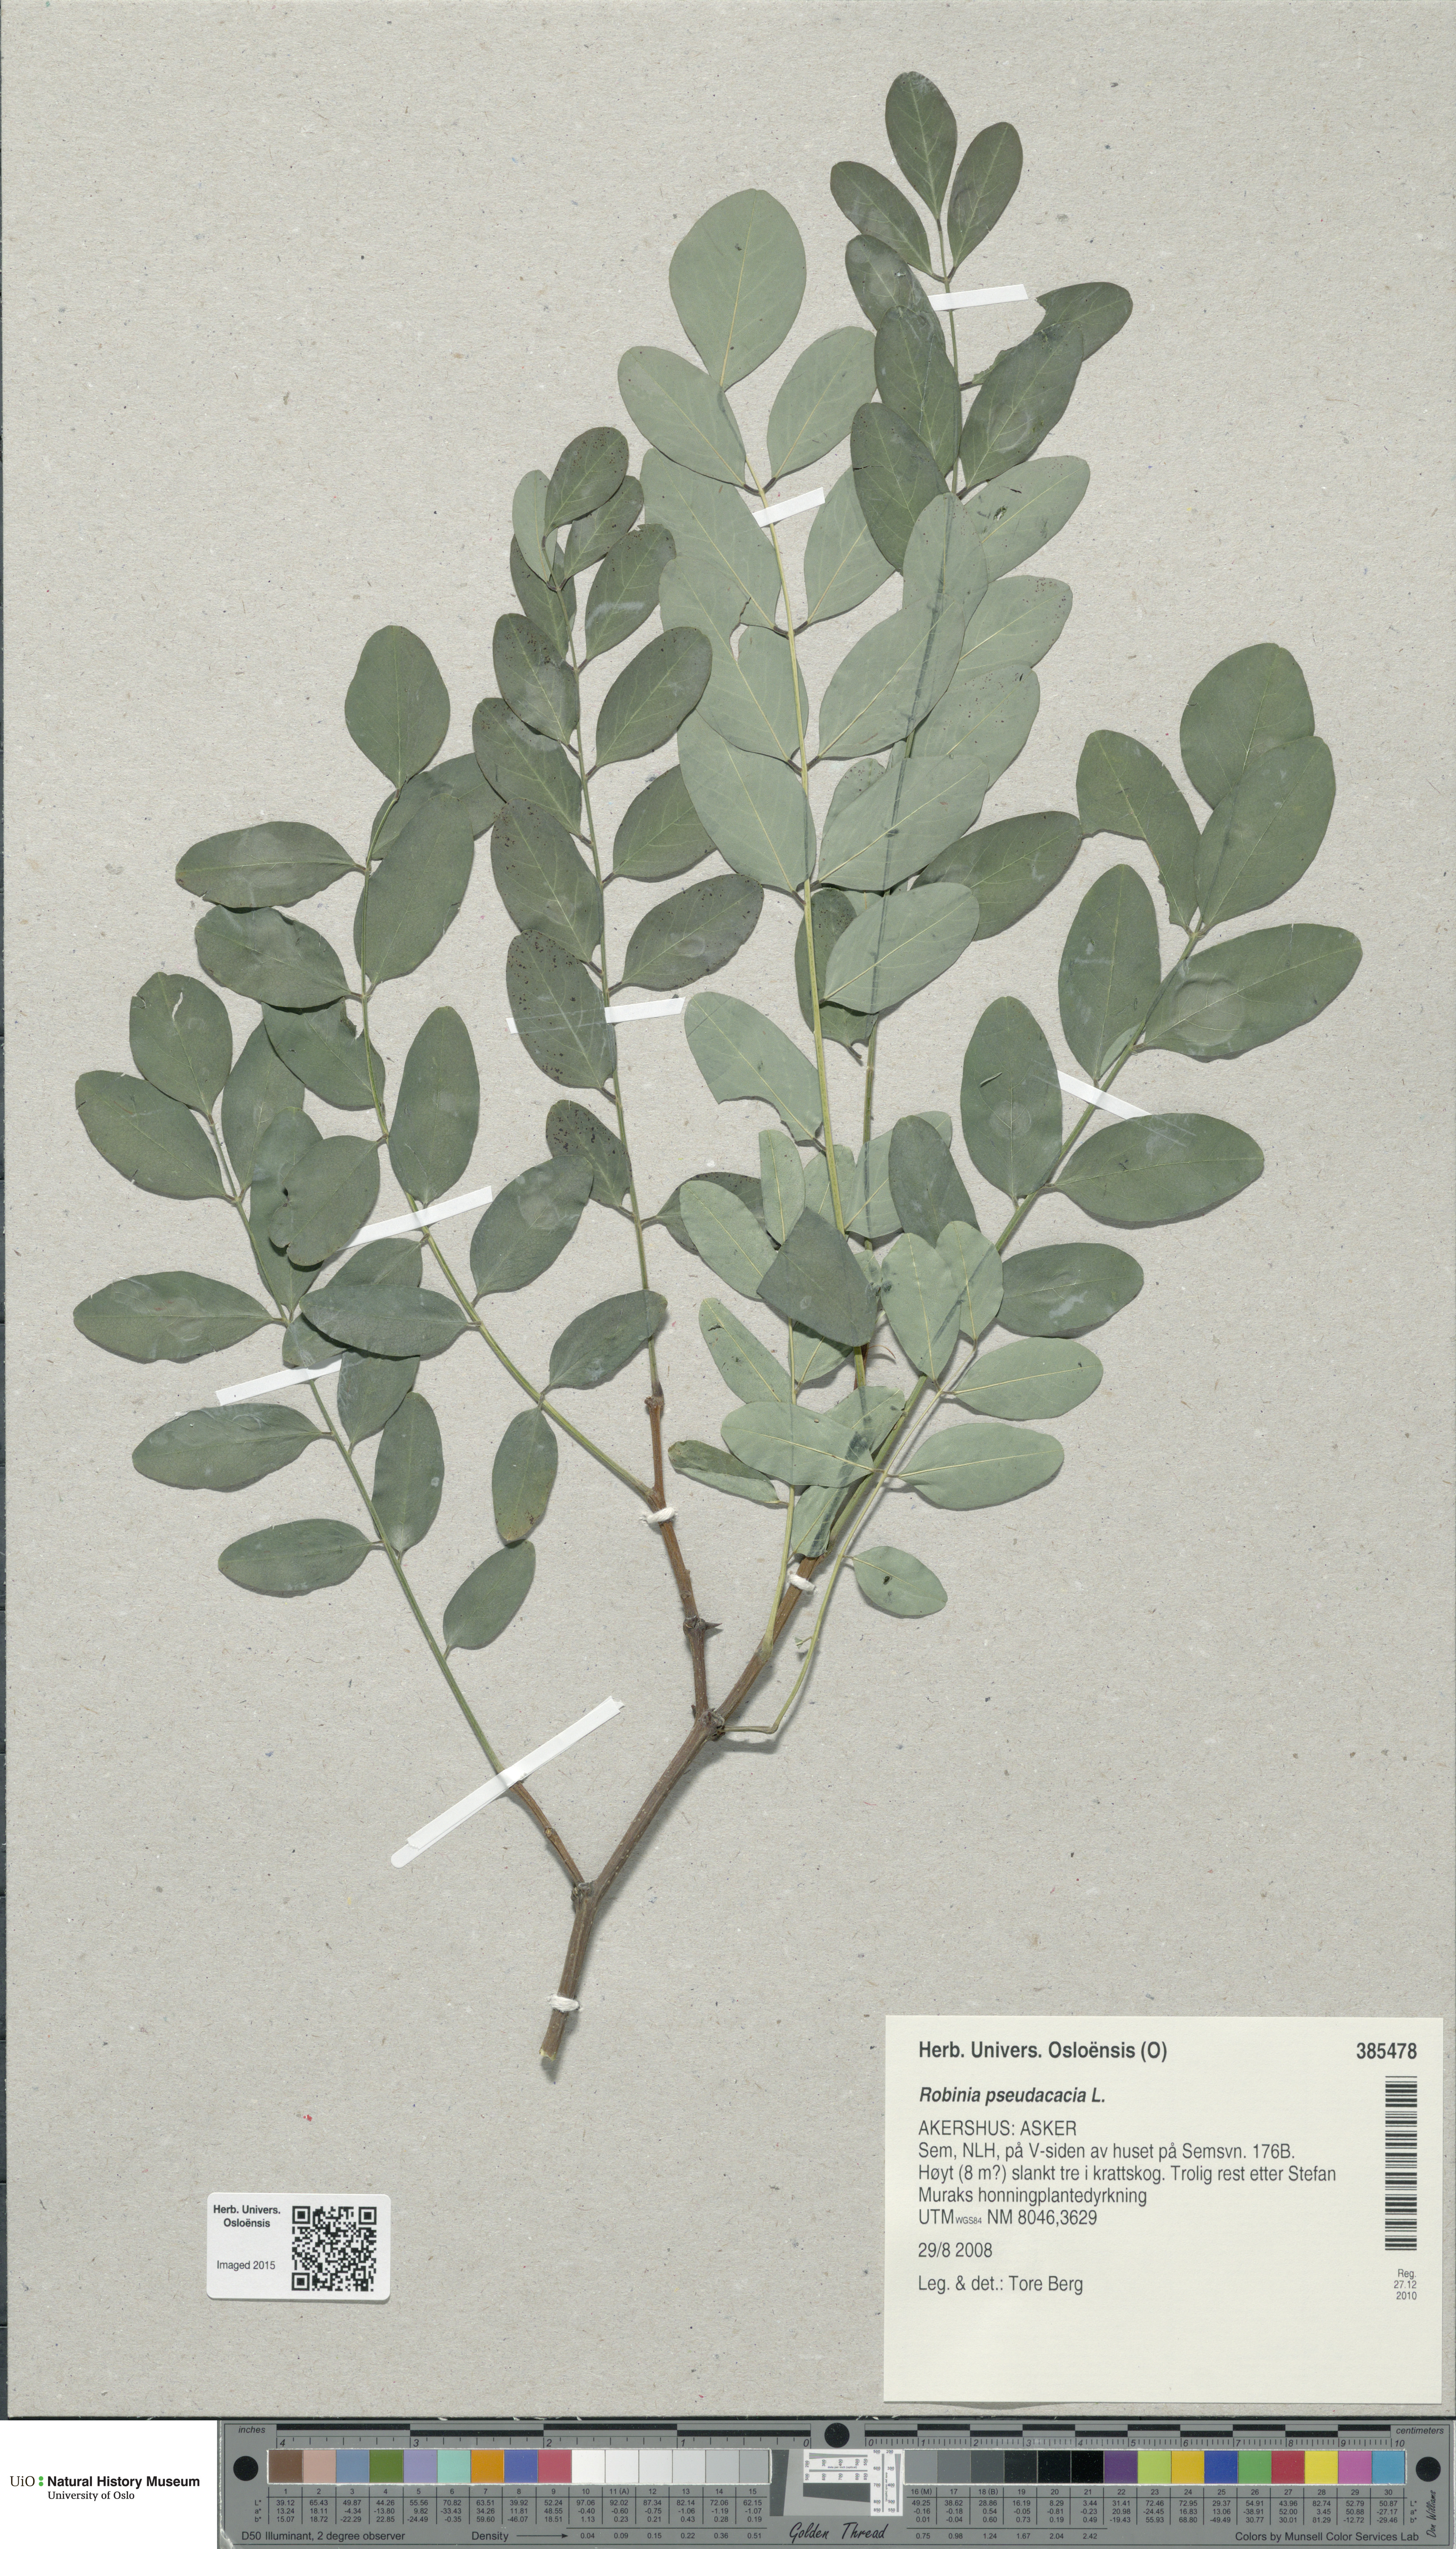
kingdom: Plantae
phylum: Tracheophyta
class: Magnoliopsida
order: Fabales
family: Fabaceae
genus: Robinia
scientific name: Robinia pseudoacacia
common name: Black locust
